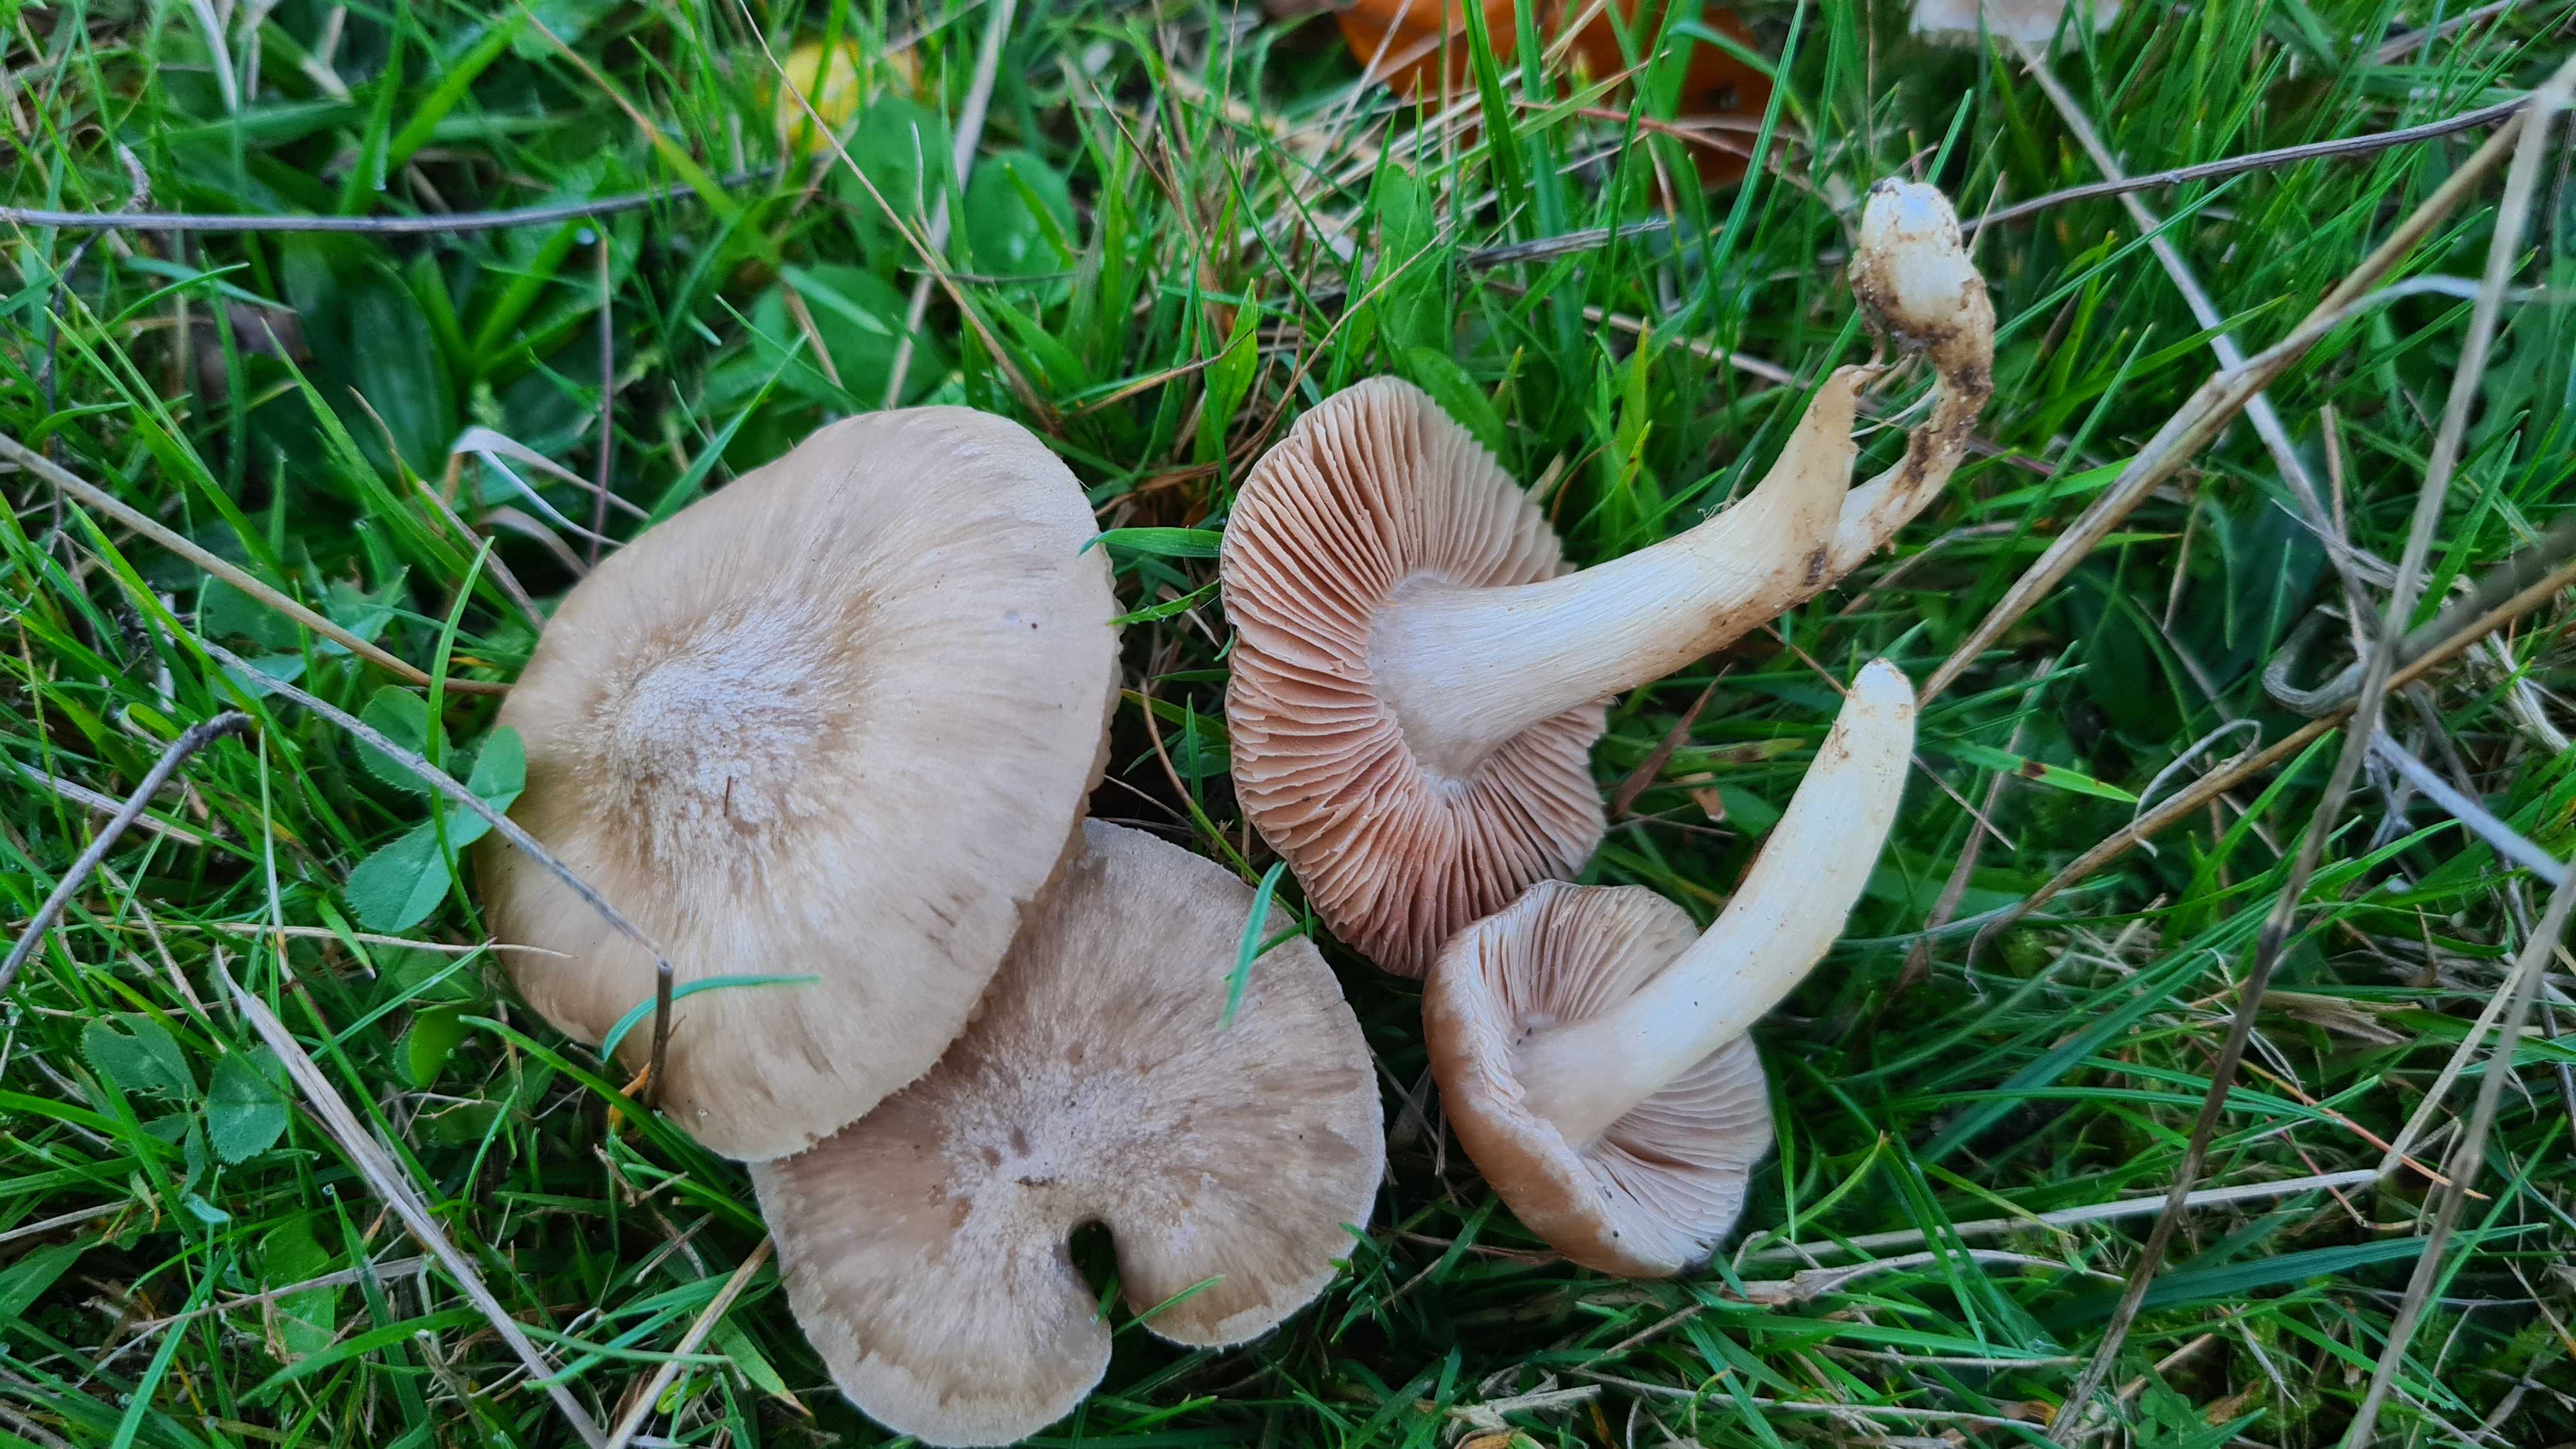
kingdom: Fungi
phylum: Basidiomycota
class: Agaricomycetes
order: Agaricales
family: Entolomataceae
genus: Entoloma
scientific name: Entoloma prunuloides
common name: mel-rødblad
